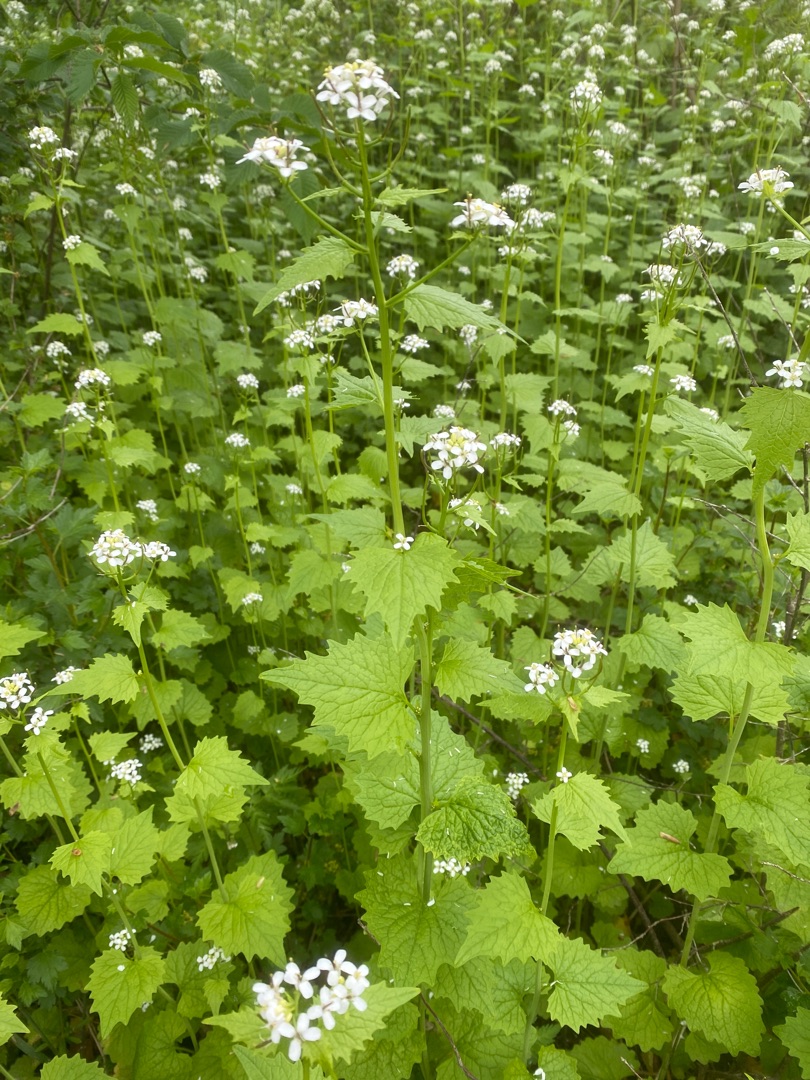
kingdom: Plantae
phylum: Tracheophyta
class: Magnoliopsida
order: Brassicales
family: Brassicaceae
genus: Alliaria
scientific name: Alliaria petiolata
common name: Løgkarse
